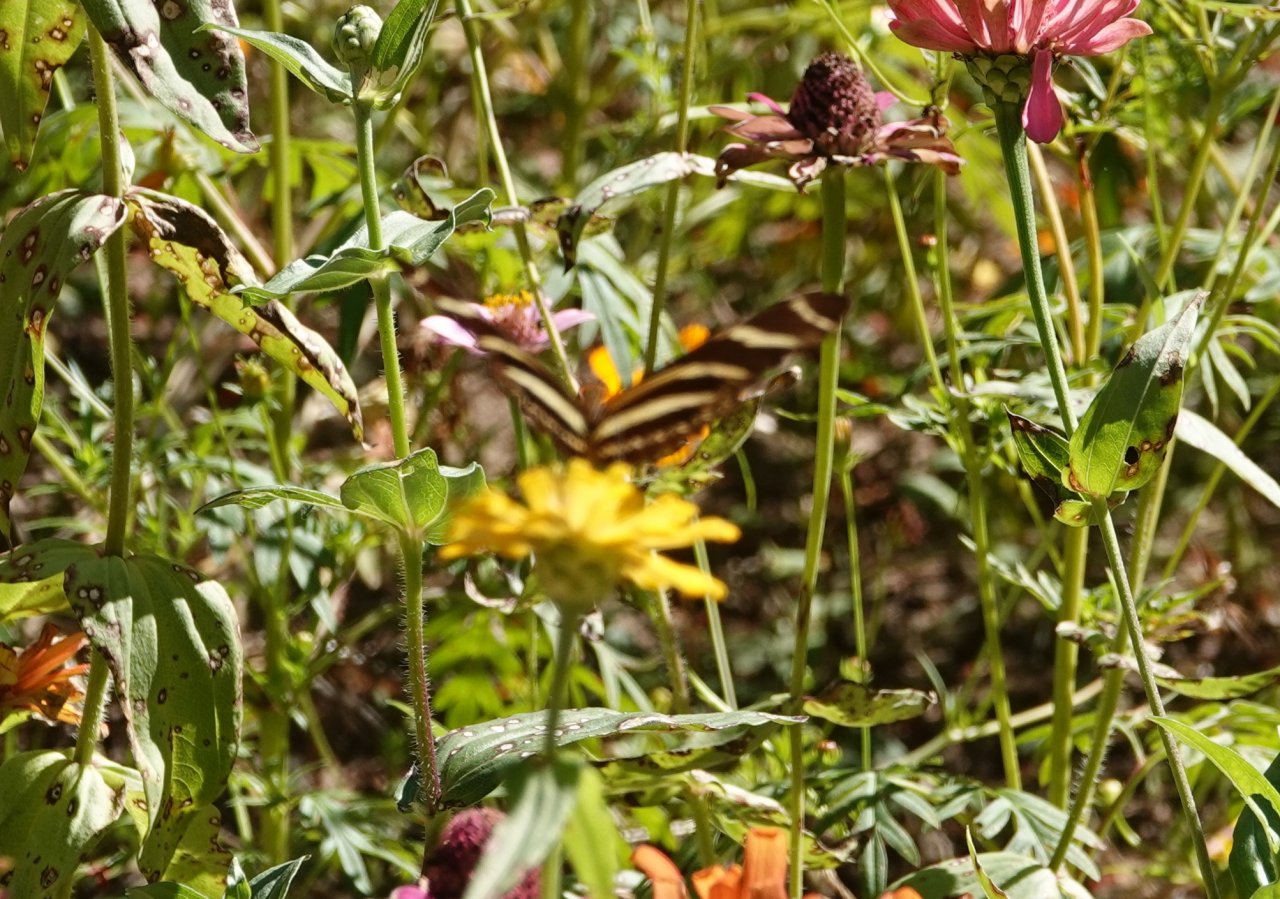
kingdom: Animalia
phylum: Arthropoda
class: Insecta
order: Lepidoptera
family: Nymphalidae
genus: Heliconius
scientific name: Heliconius charithonia
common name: Zebra Longwing
